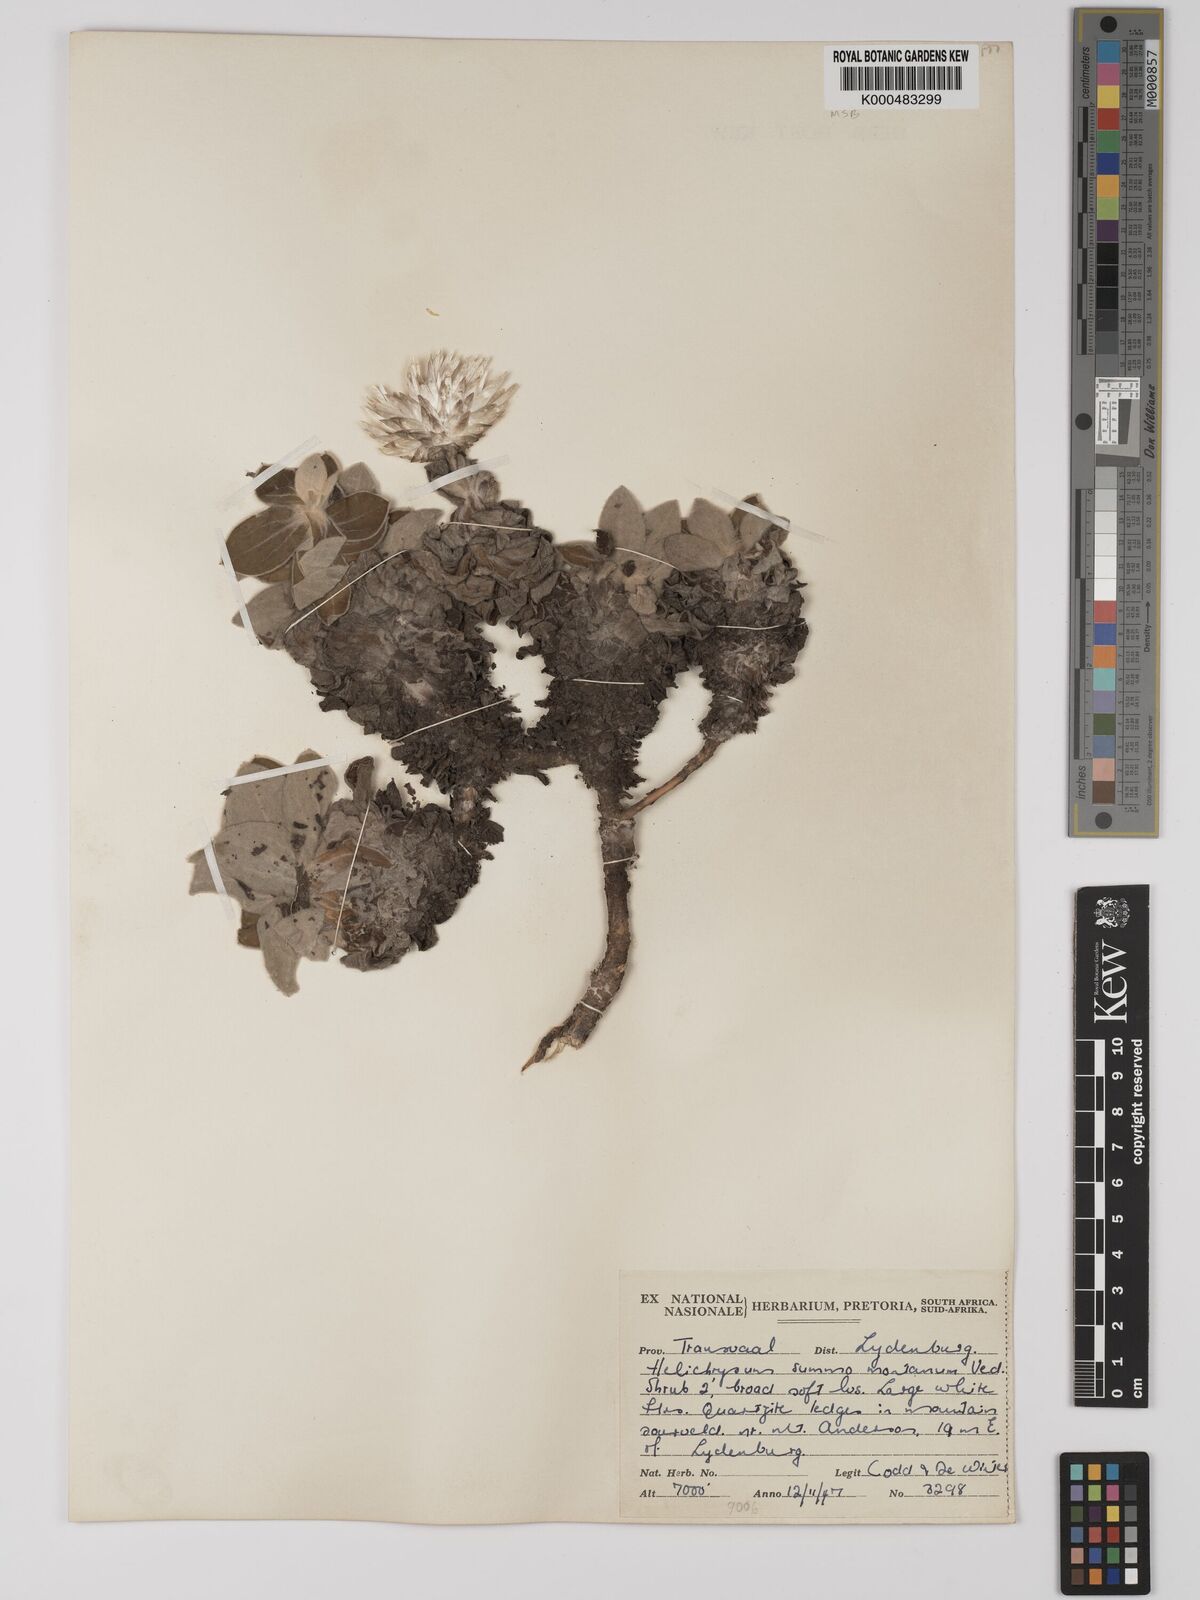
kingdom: Plantae
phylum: Tracheophyta
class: Magnoliopsida
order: Asterales
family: Asteraceae
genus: Helichrysum
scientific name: Helichrysum summo-montanum
